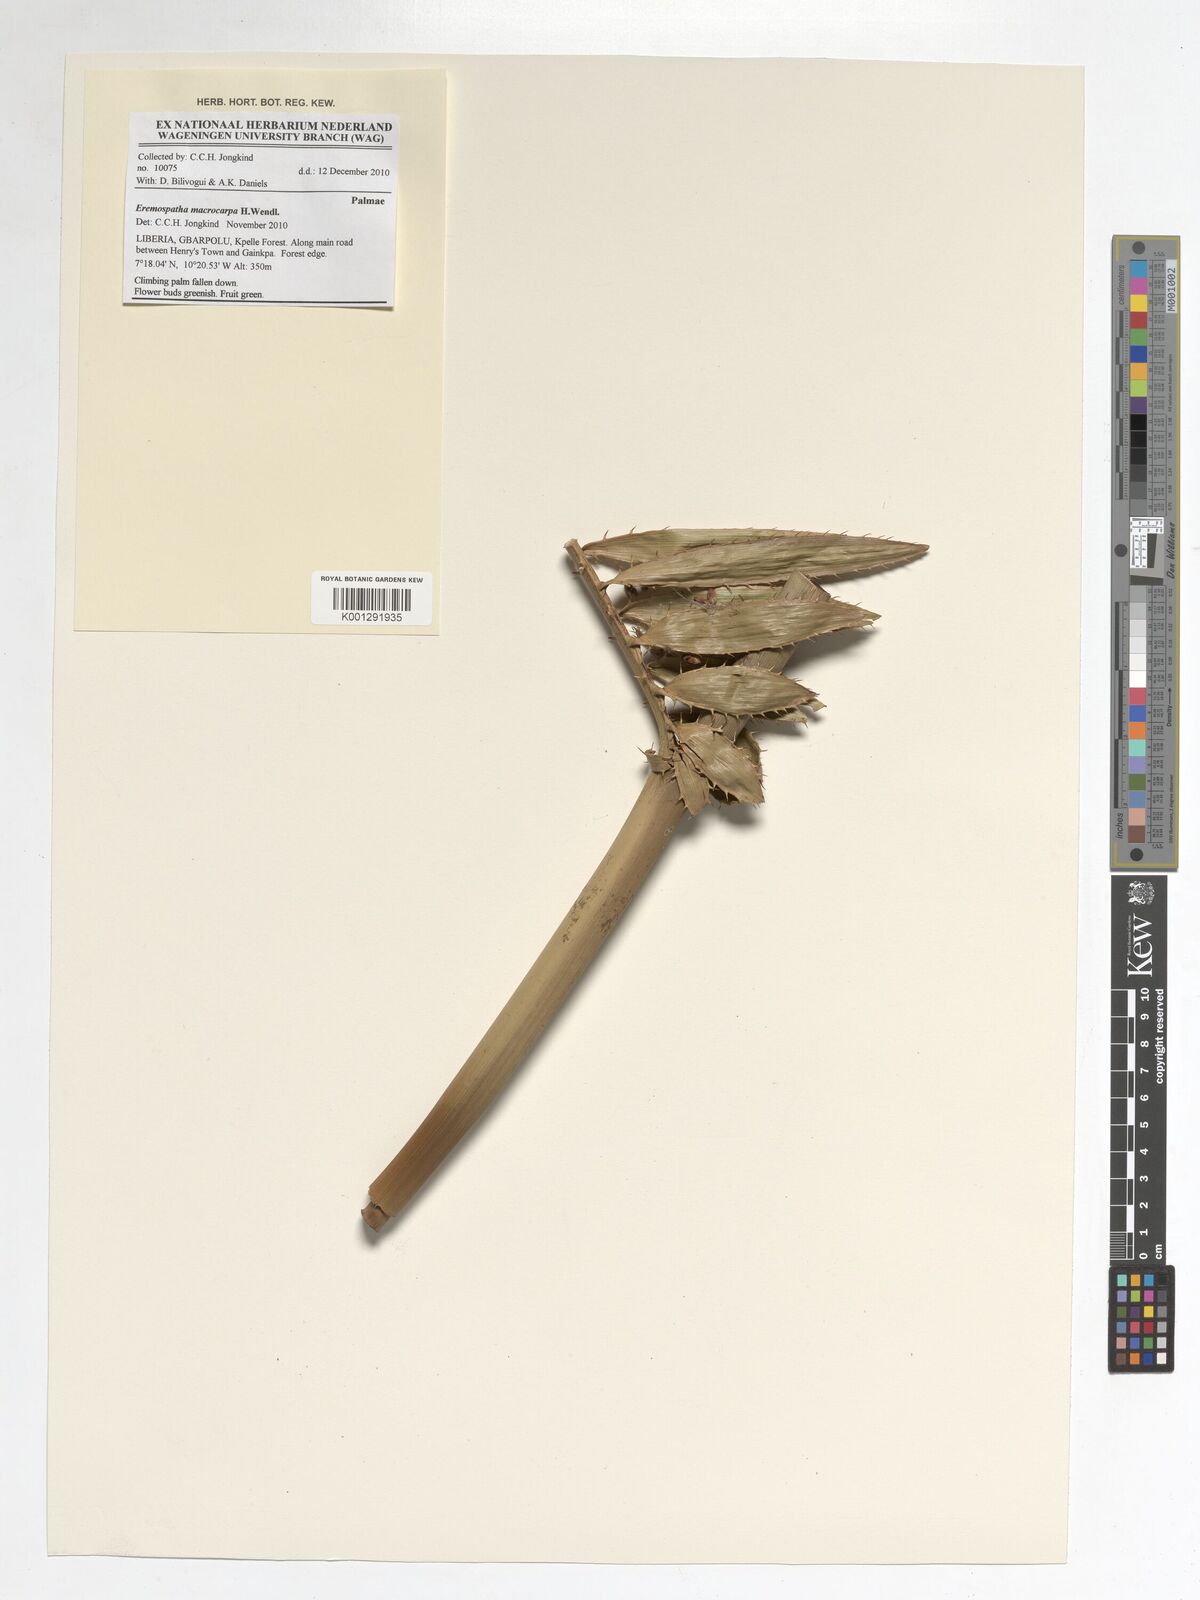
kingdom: Plantae
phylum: Tracheophyta
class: Liliopsida
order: Arecales
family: Arecaceae
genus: Eremospatha
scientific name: Eremospatha macrocarpa
